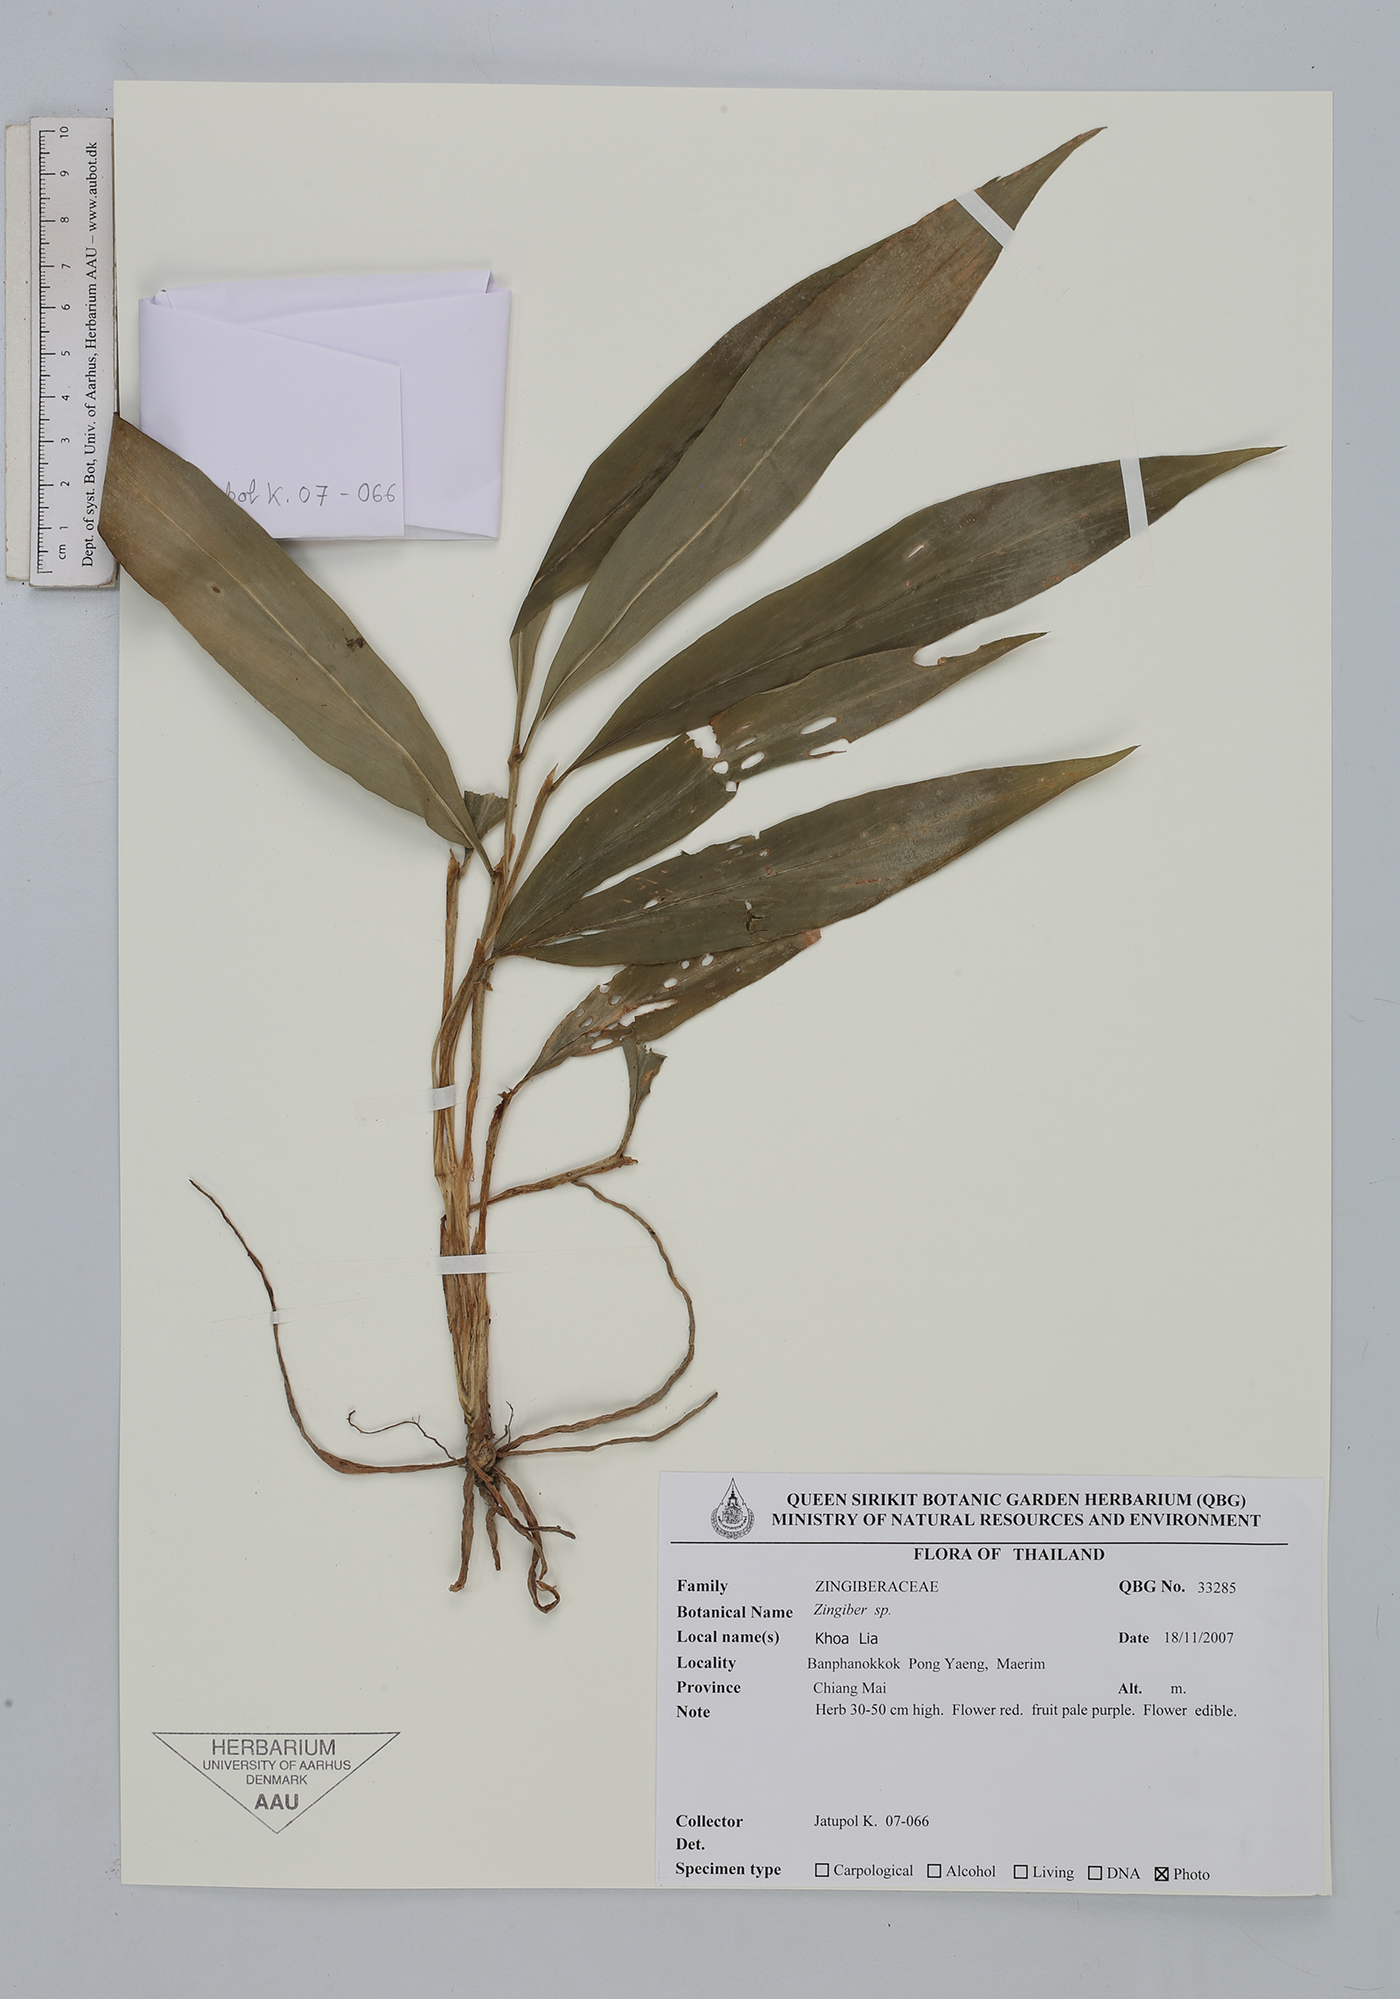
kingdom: Plantae
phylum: Tracheophyta
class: Liliopsida
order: Zingiberales
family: Zingiberaceae
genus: Zingiber
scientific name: Zingiber
